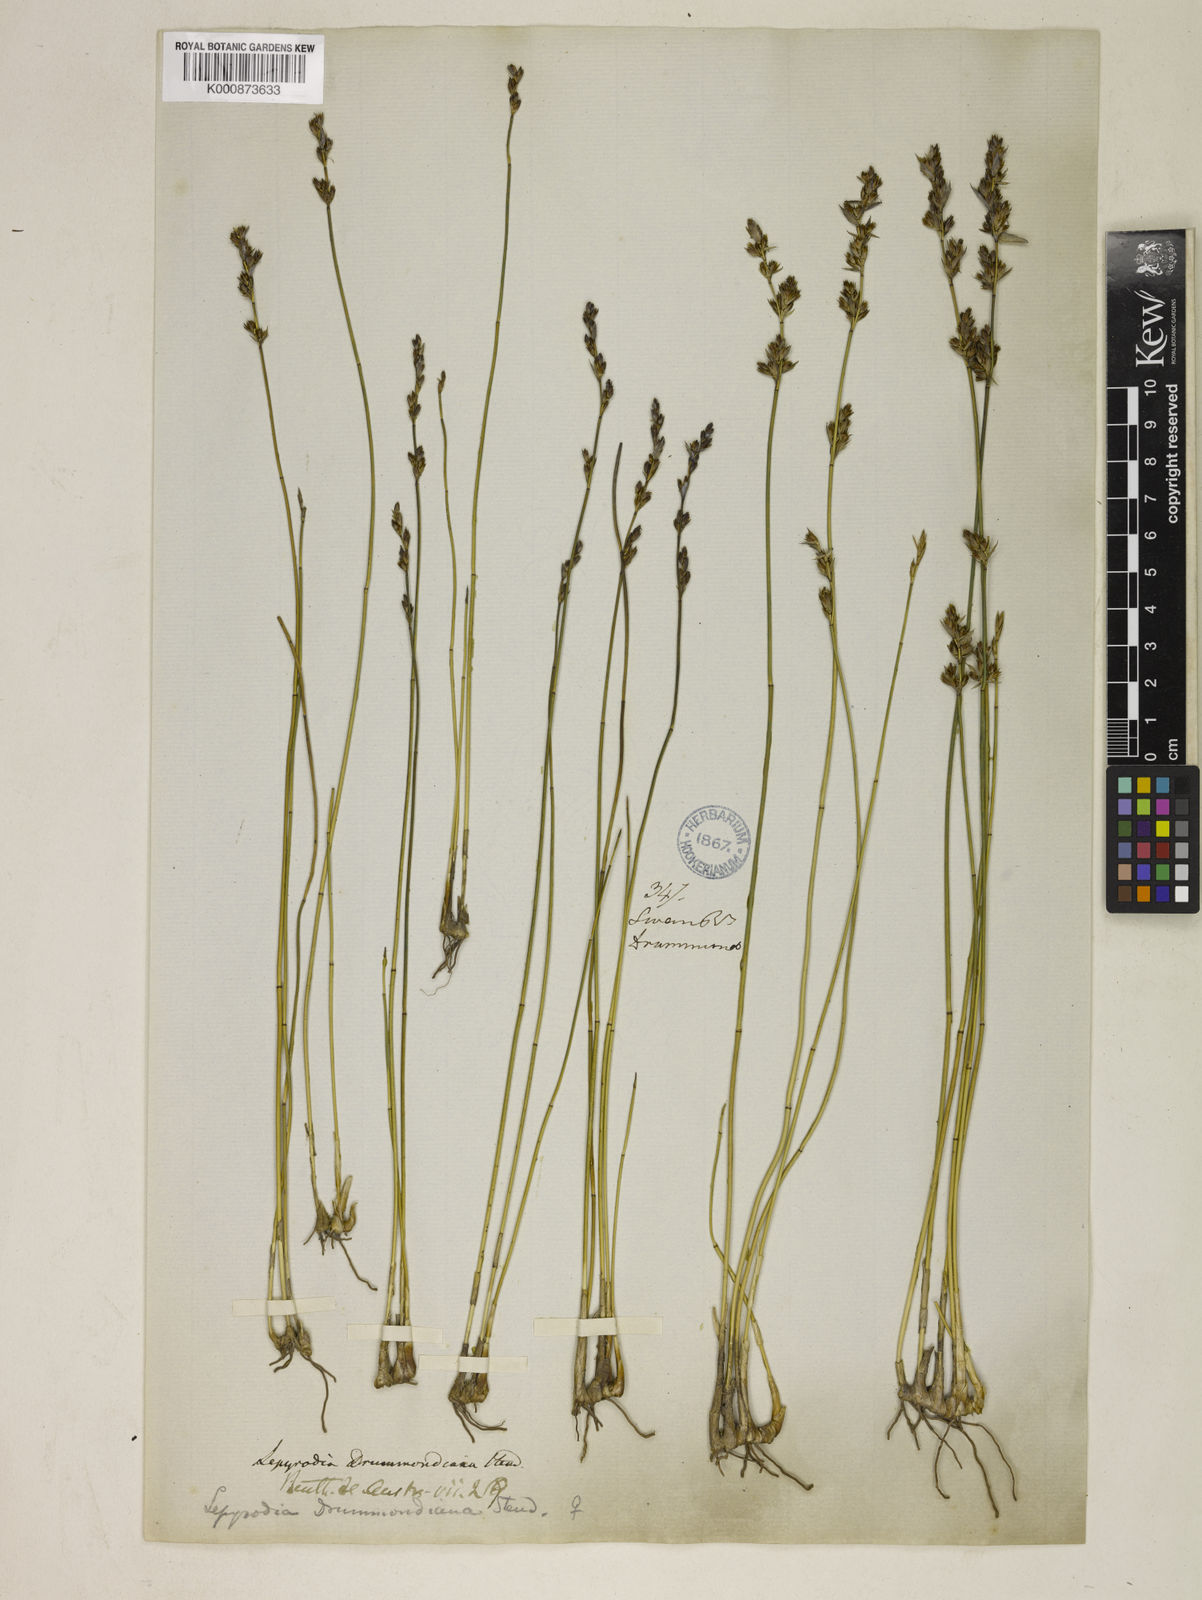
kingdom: Plantae
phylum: Tracheophyta
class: Liliopsida
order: Poales
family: Restionaceae
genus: Lepyrodia
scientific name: Lepyrodia drummondiana
